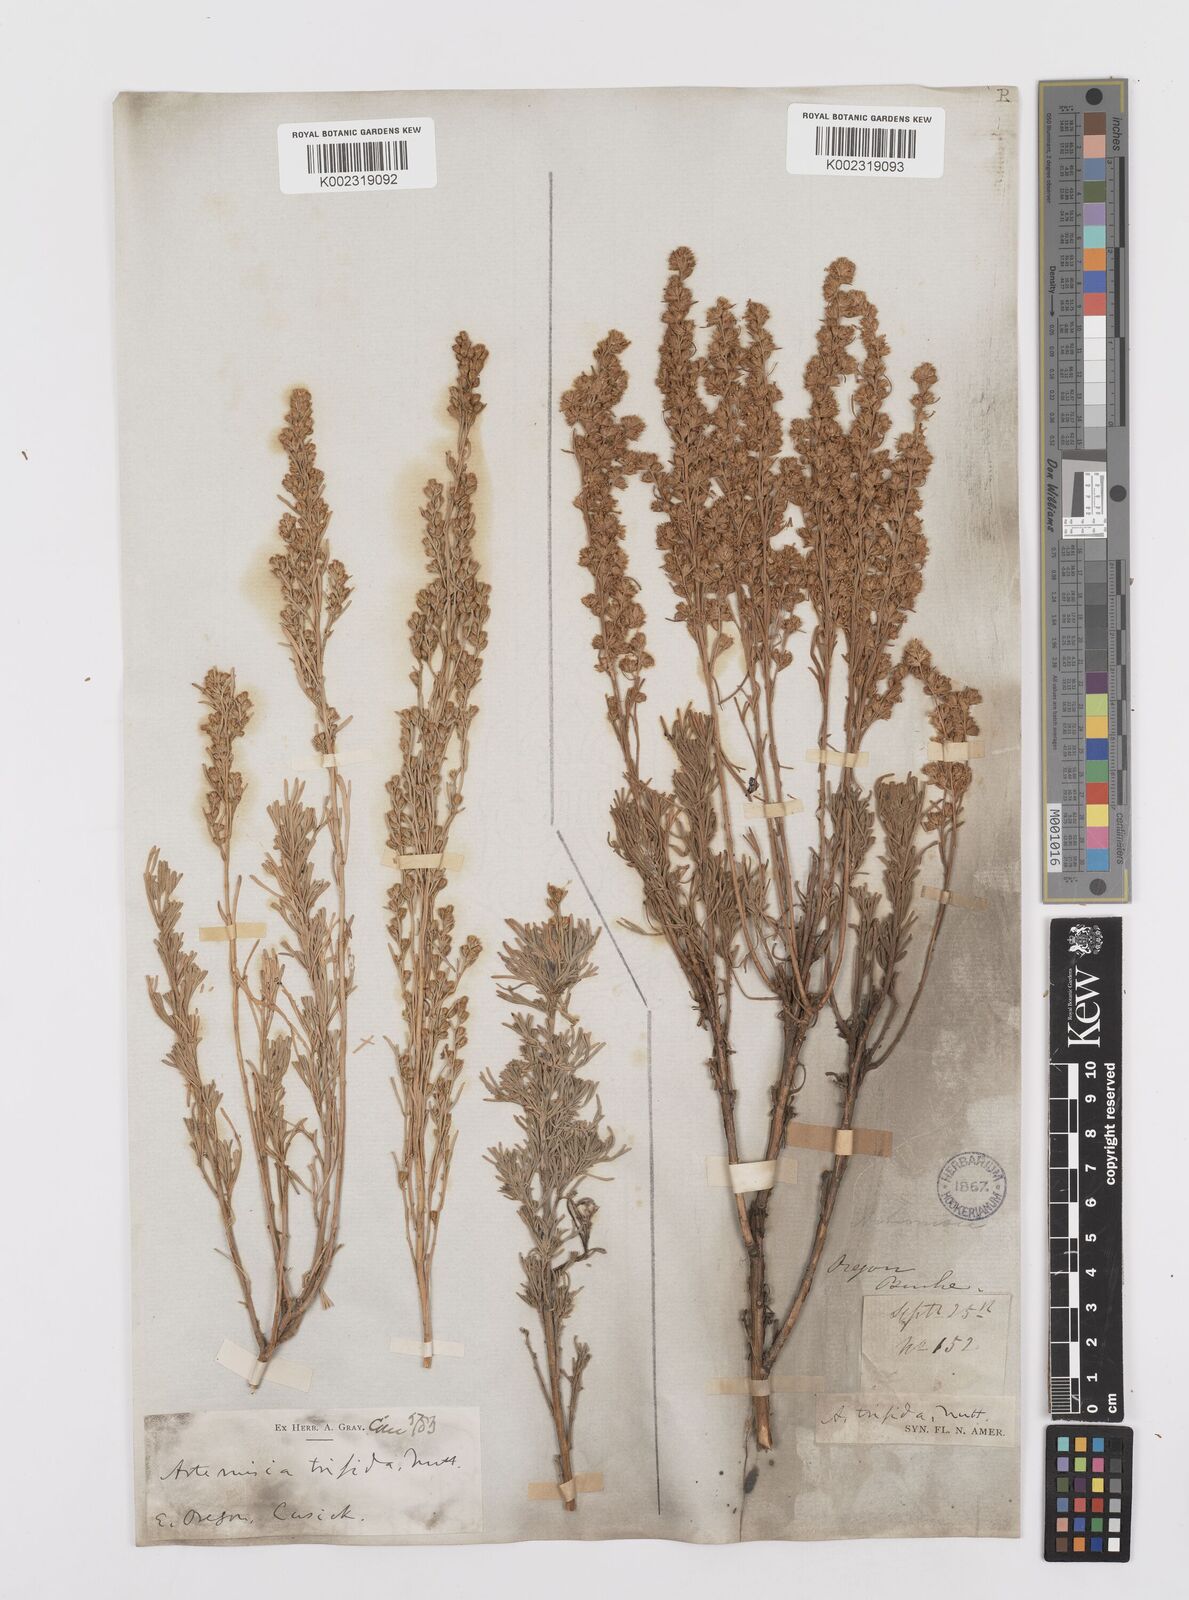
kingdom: Plantae
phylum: Tracheophyta
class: Magnoliopsida
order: Asterales
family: Asteraceae
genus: Artemisia
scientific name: Artemisia tripartita
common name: Three-tip sagebrush
